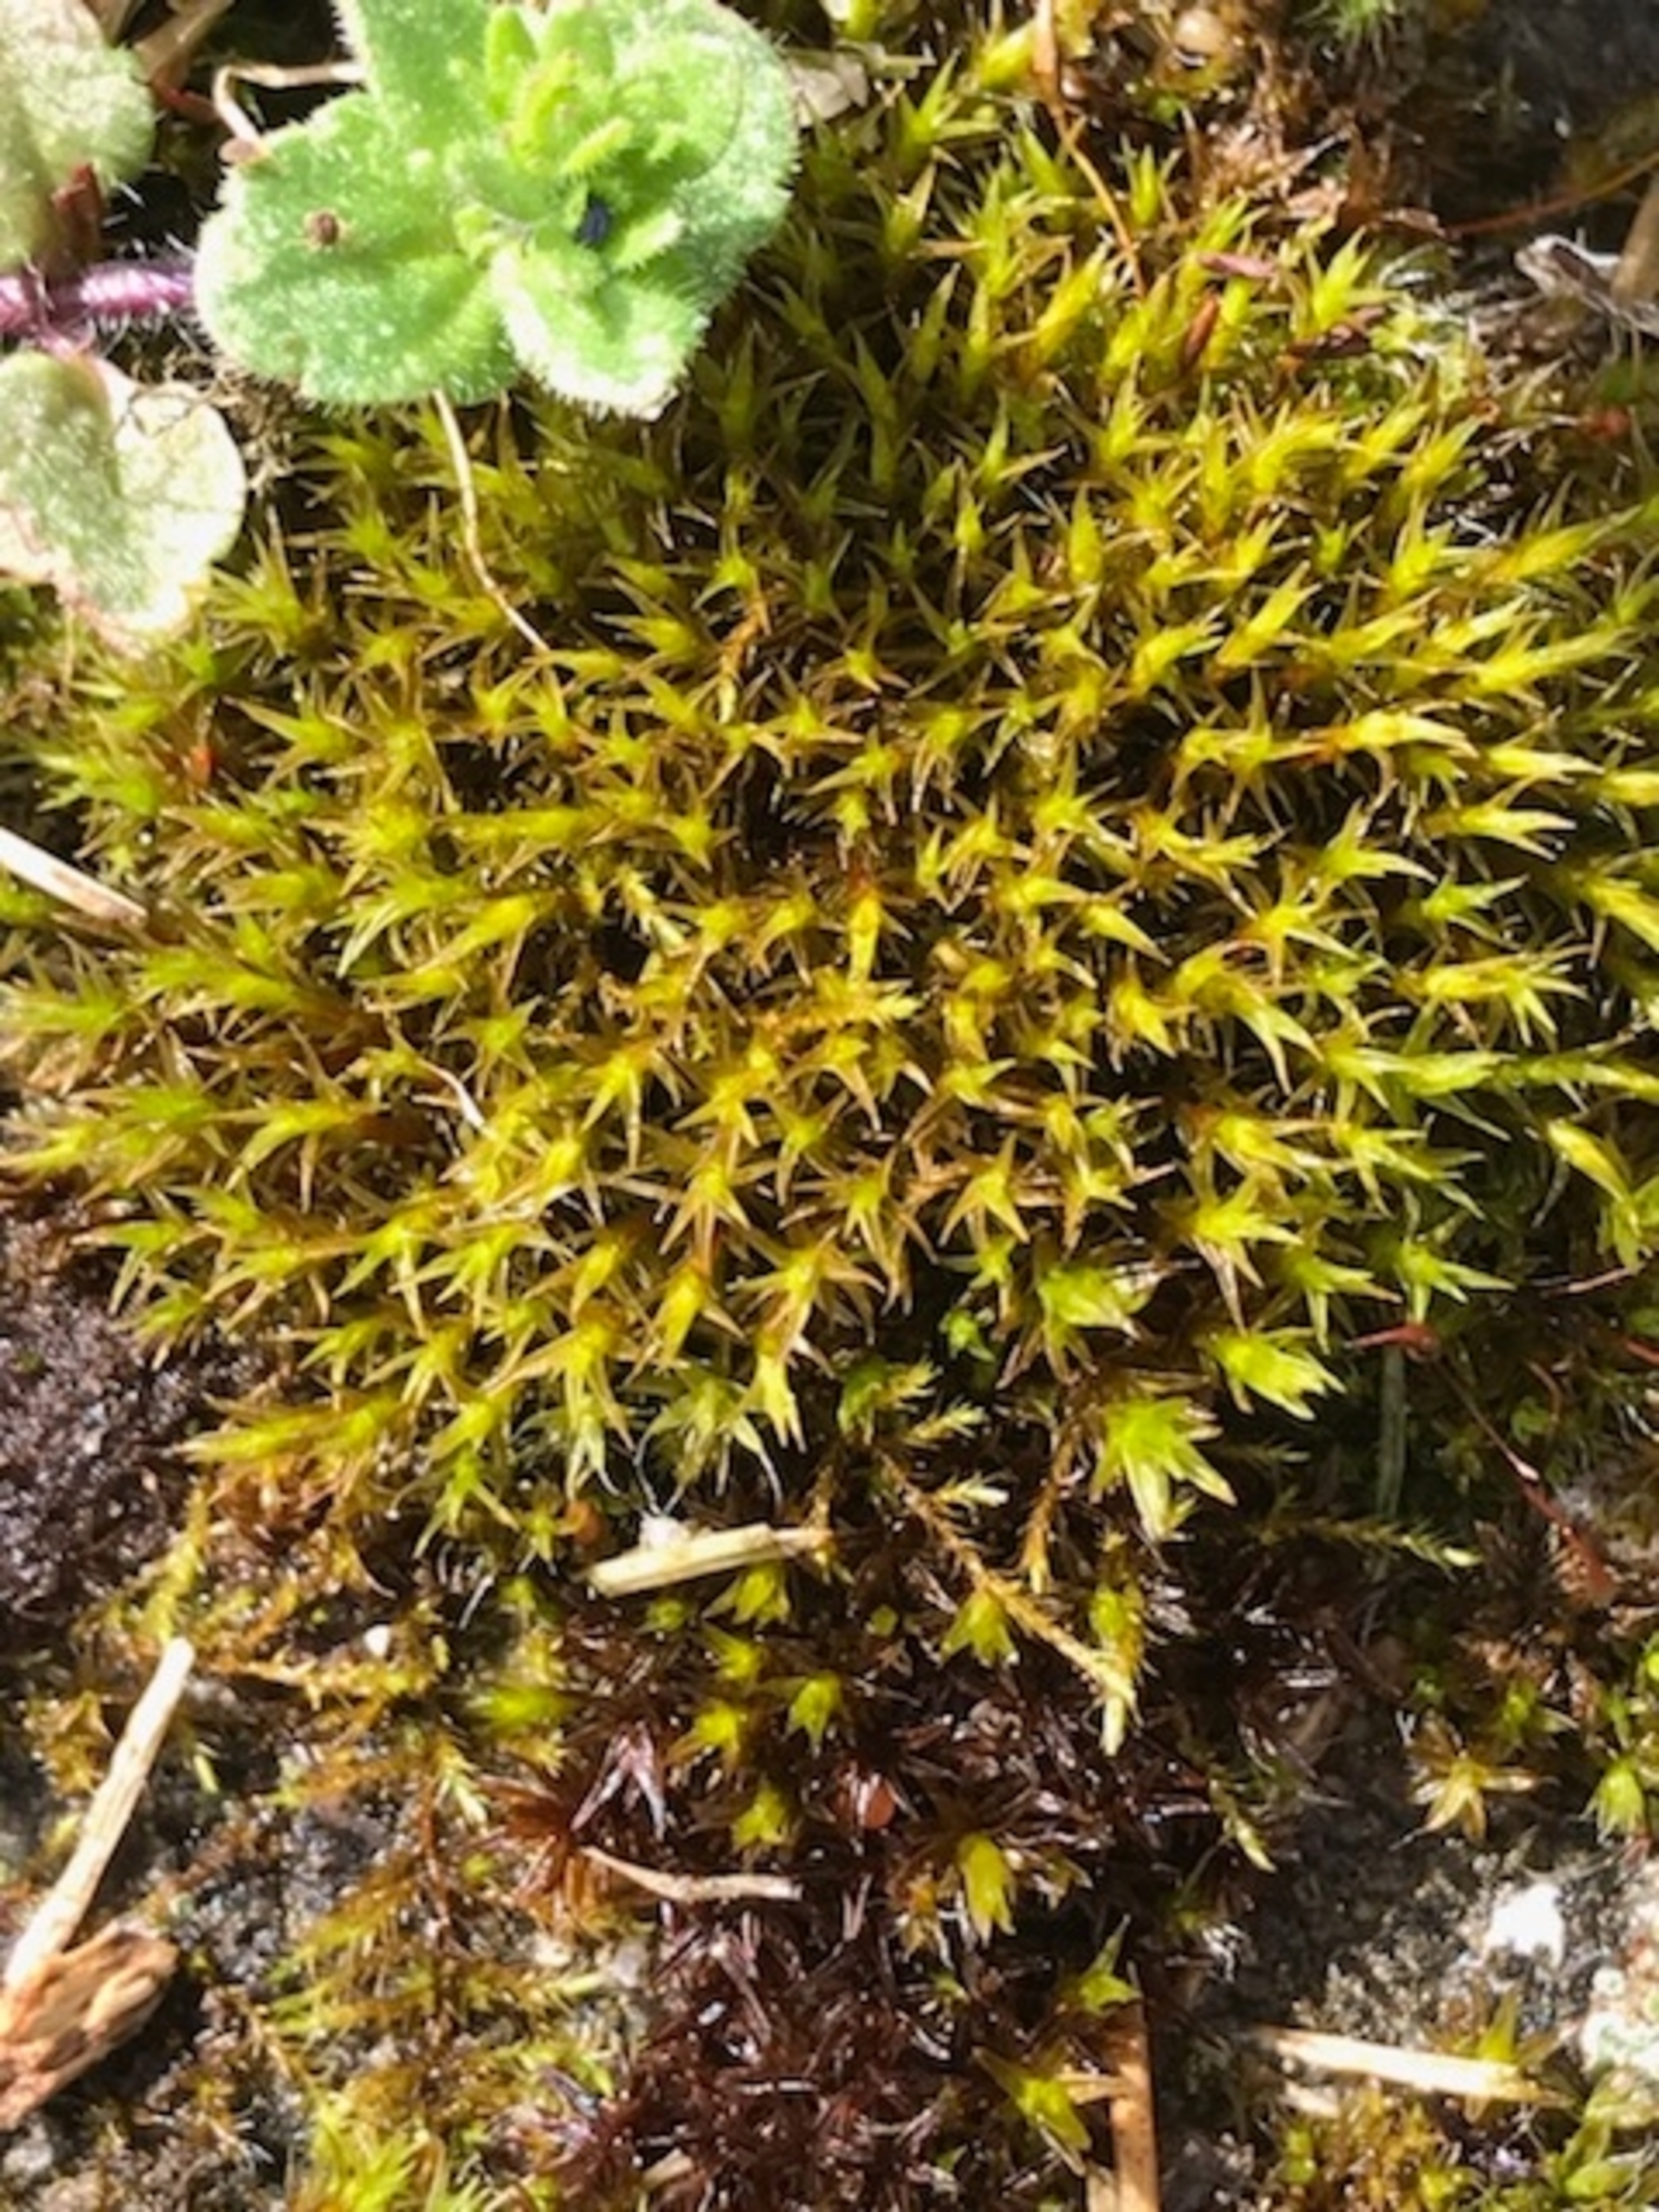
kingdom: Plantae
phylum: Bryophyta
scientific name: Bryophyta
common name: Mosser
